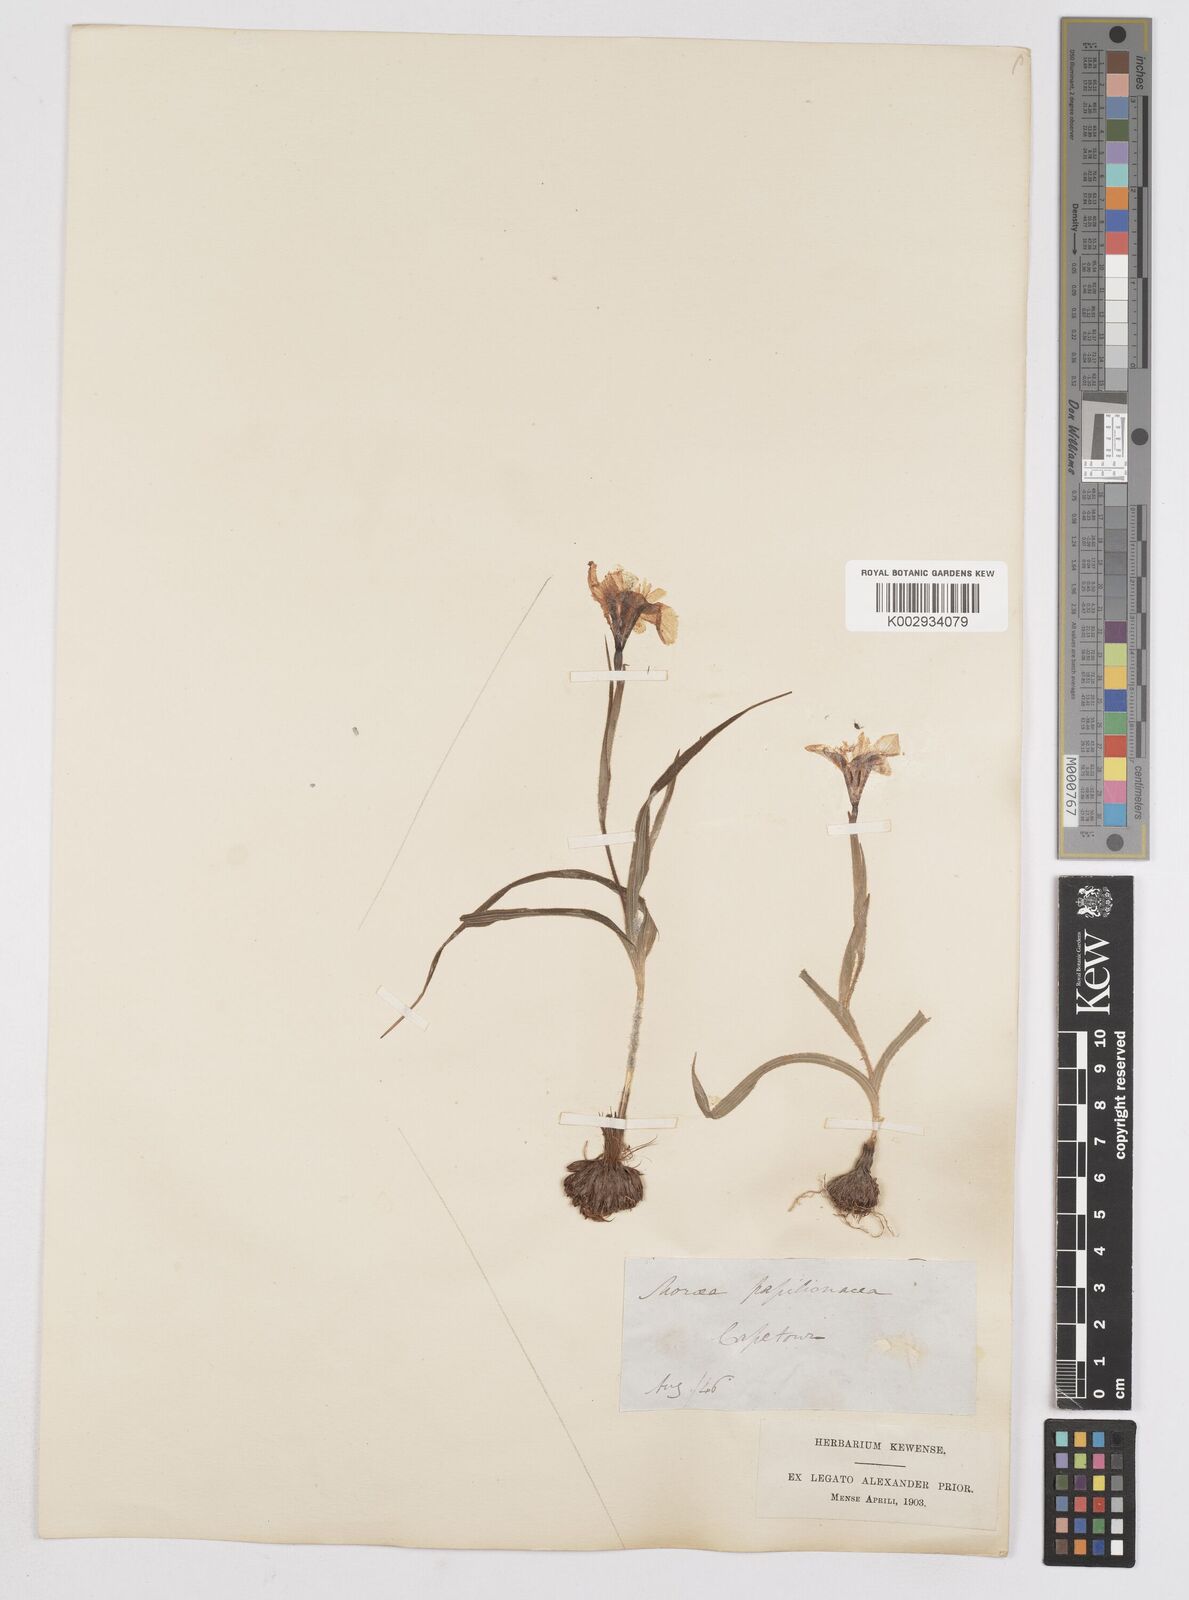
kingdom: Plantae
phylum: Tracheophyta
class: Liliopsida
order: Asparagales
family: Iridaceae
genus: Moraea
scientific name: Moraea papilionacea
